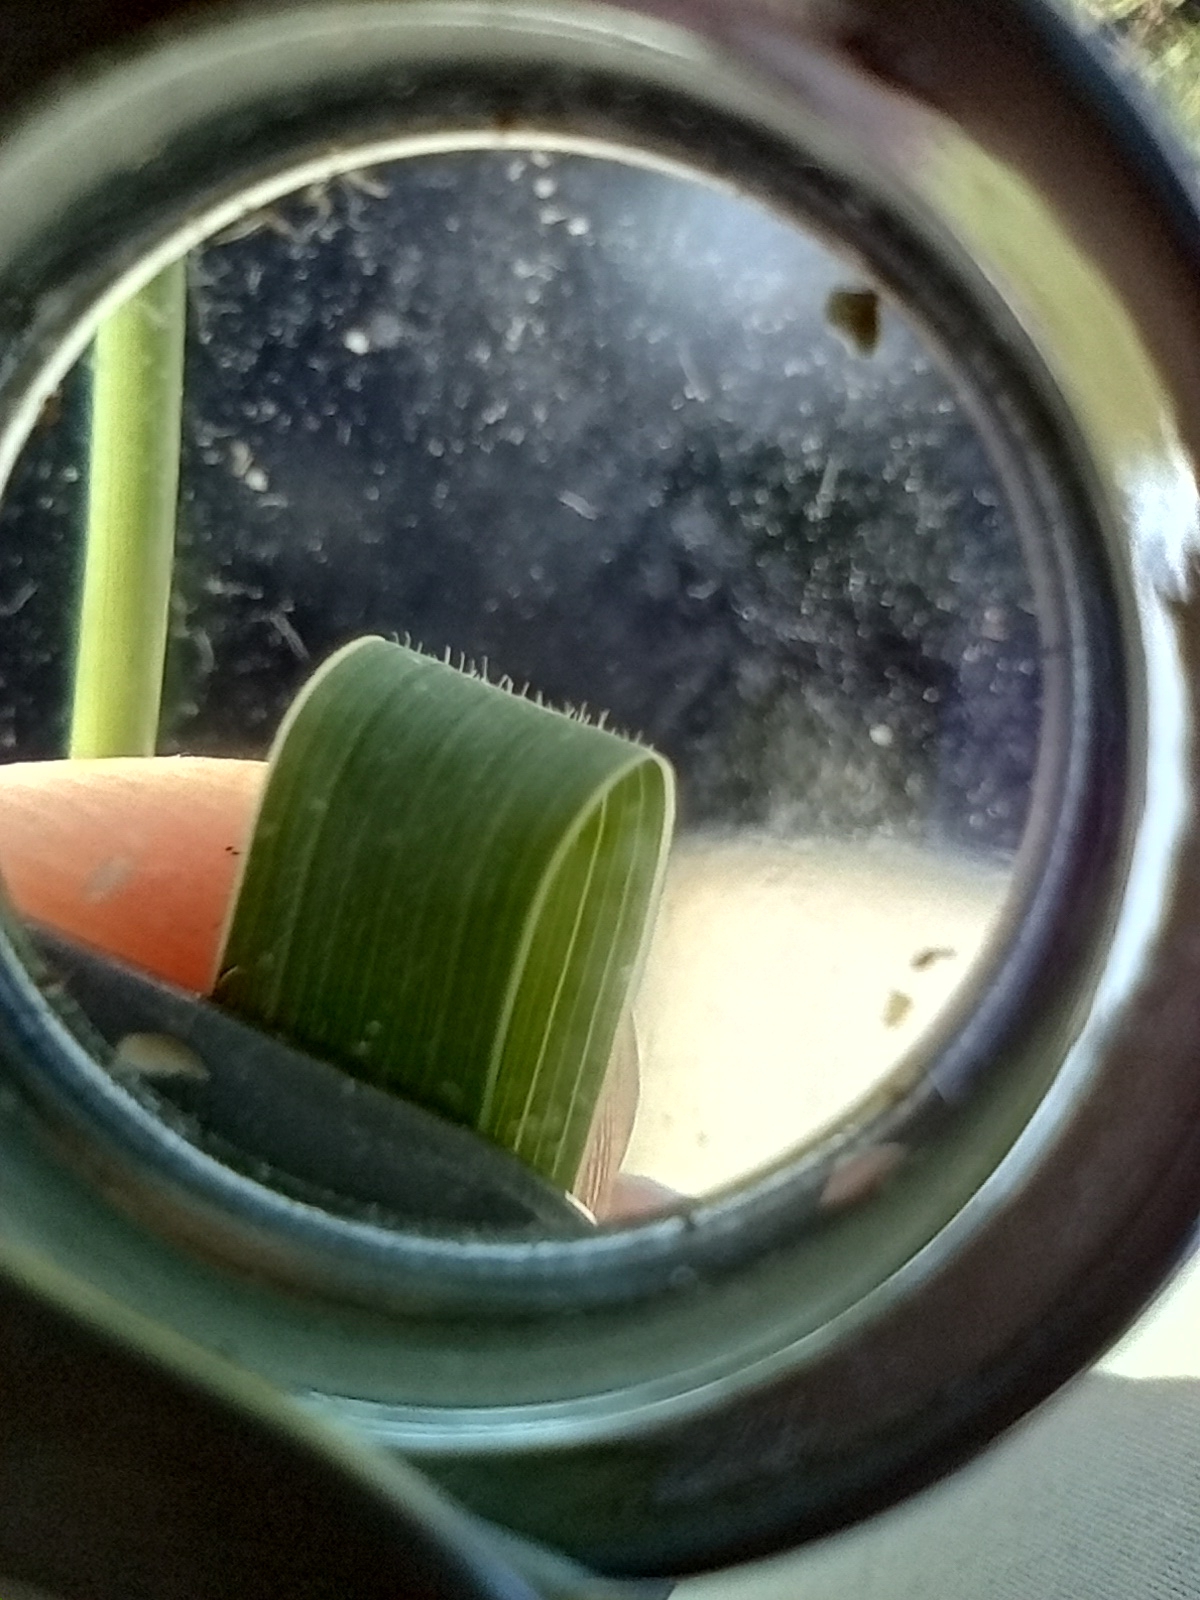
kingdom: Plantae
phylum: Tracheophyta
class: Liliopsida
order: Poales
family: Poaceae
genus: Elymus
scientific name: Elymus repens
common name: Almindelig kvik
